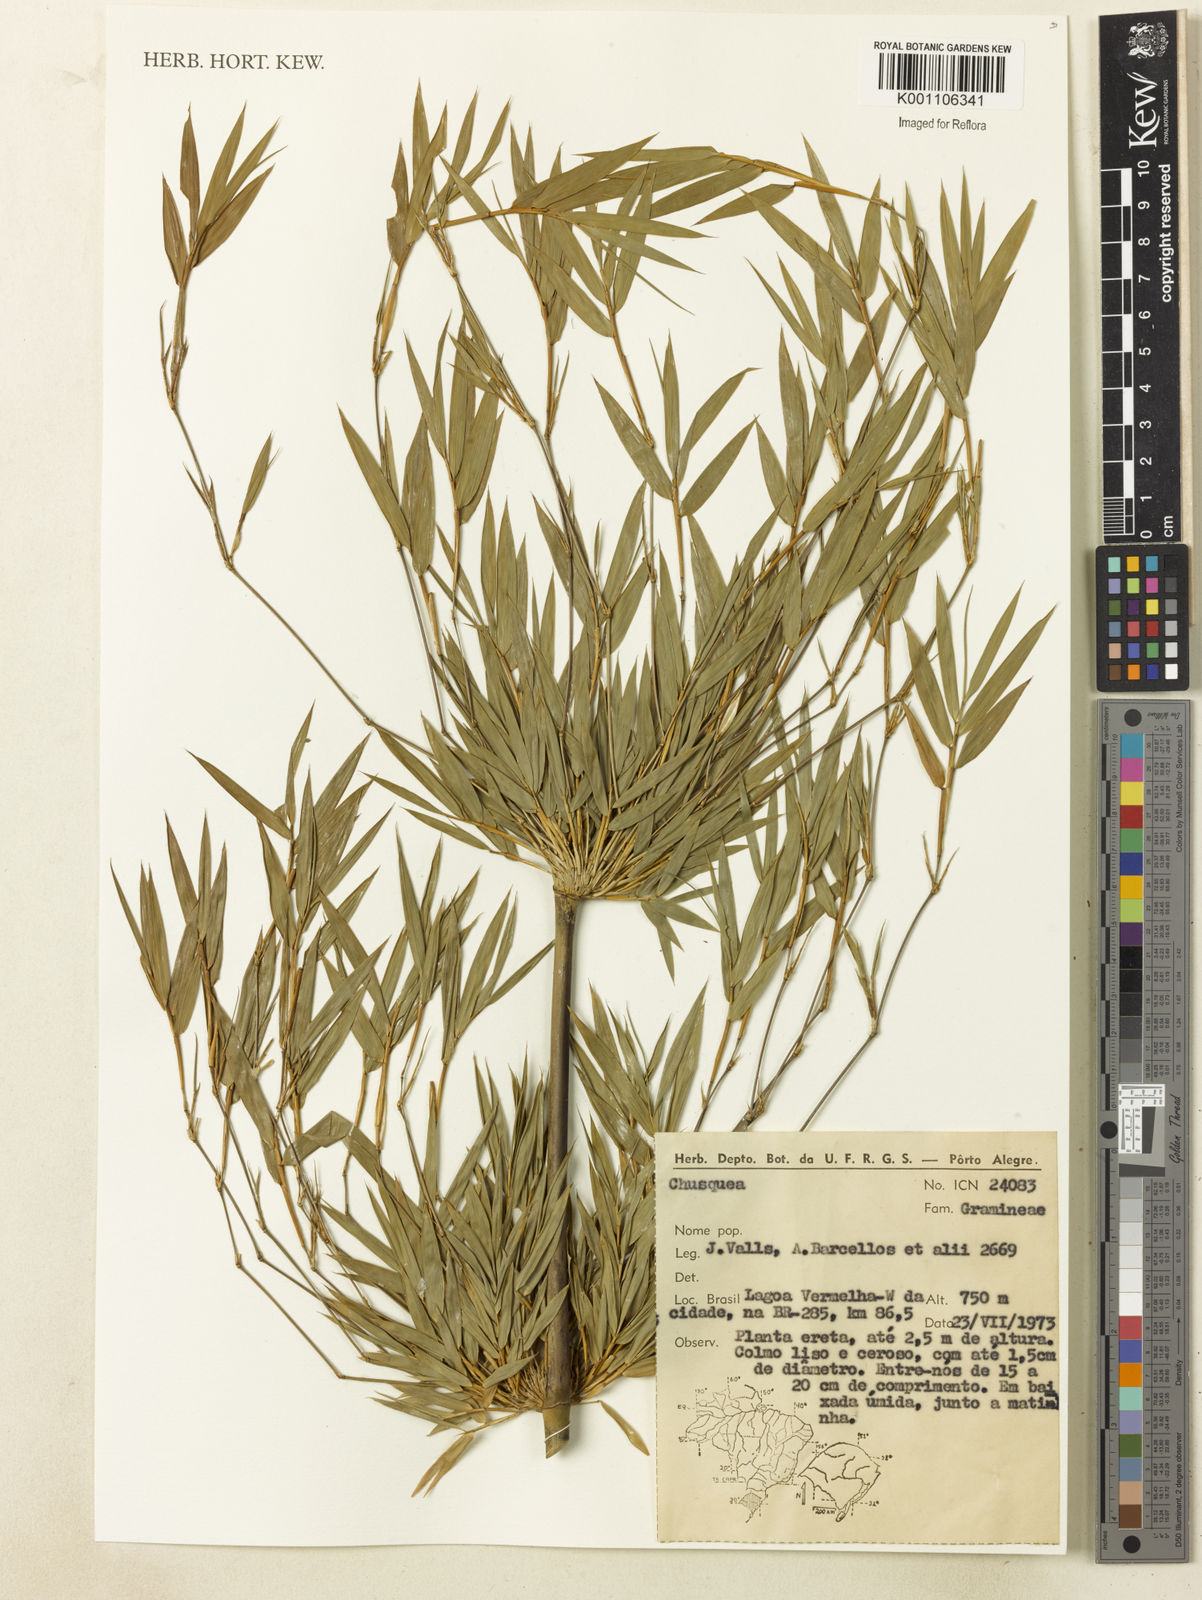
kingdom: Plantae
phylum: Tracheophyta
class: Liliopsida
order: Poales
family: Poaceae
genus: Chusquea
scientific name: Chusquea
